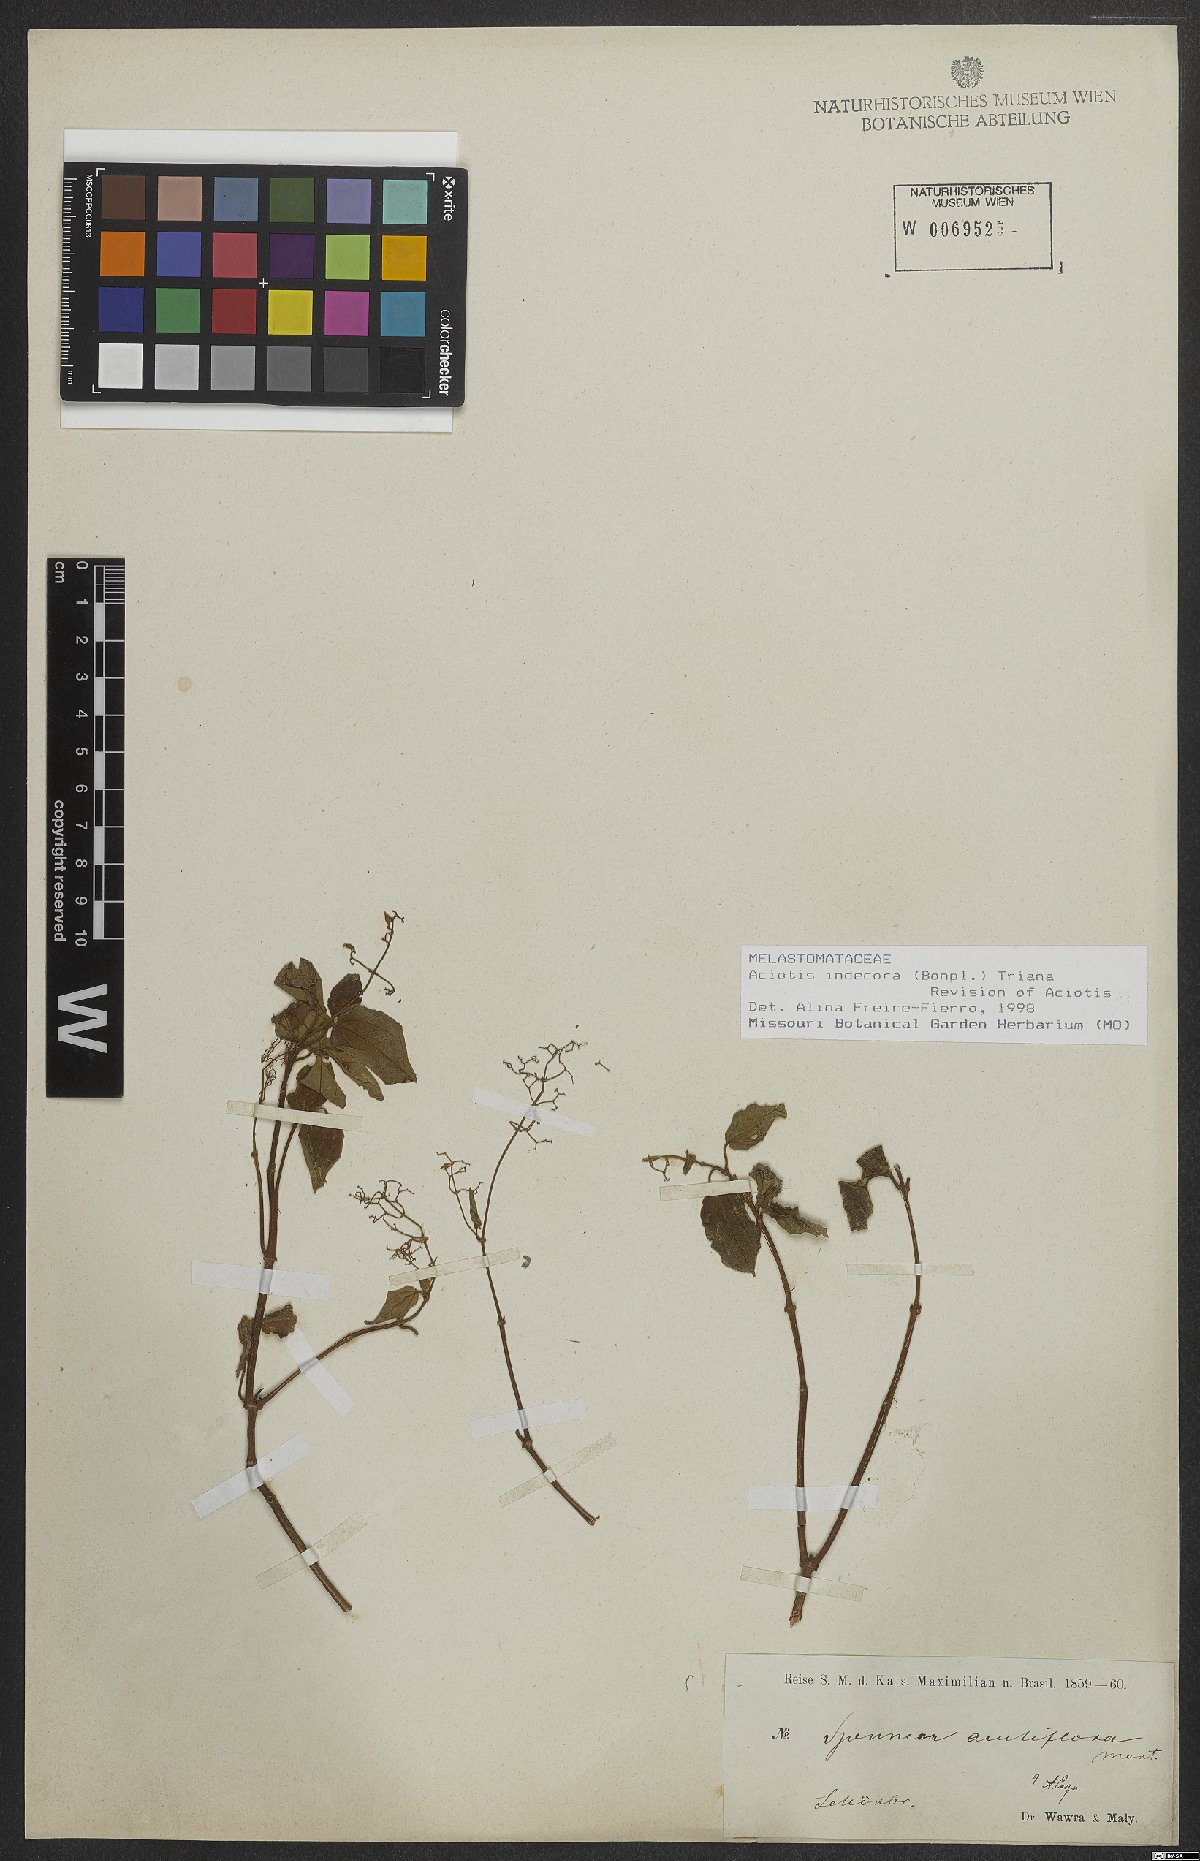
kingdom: Plantae
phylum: Tracheophyta
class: Magnoliopsida
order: Myrtales
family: Melastomataceae
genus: Aciotis
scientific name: Aciotis indecora
